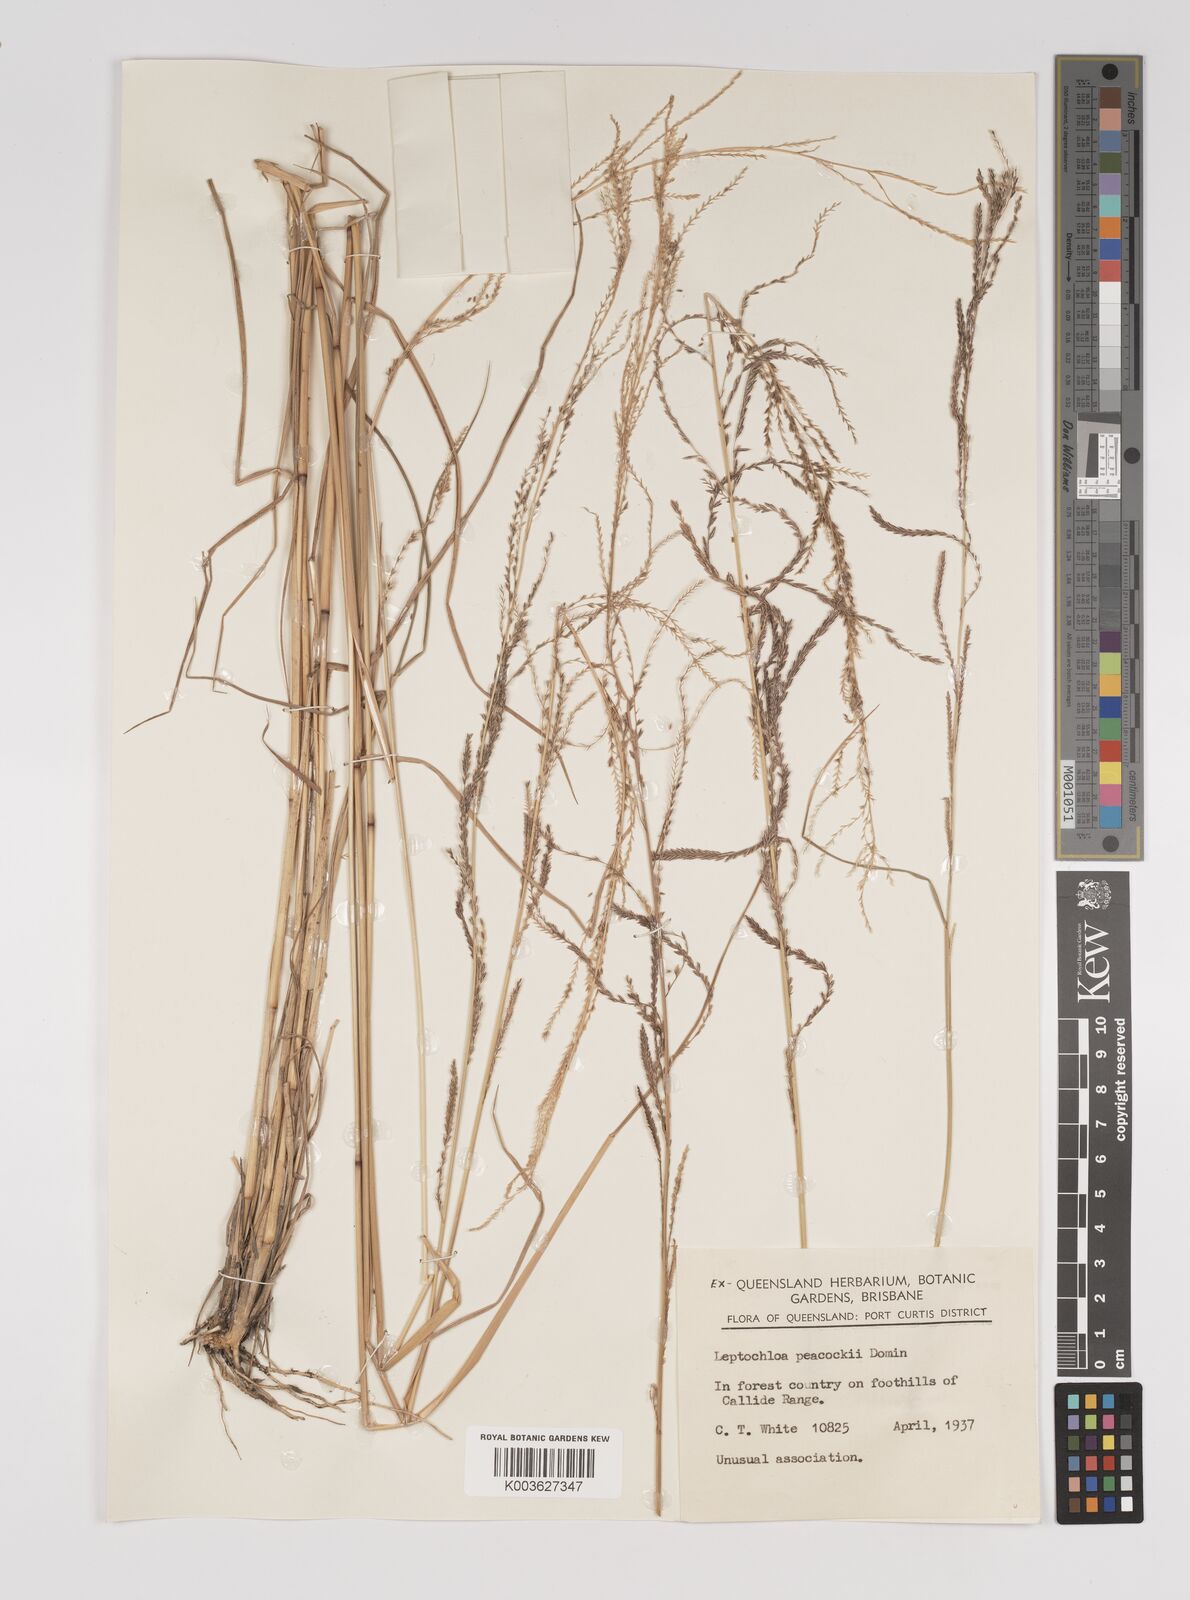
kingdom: Plantae
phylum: Tracheophyta
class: Liliopsida
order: Poales
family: Poaceae
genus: Leptochloa
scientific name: Leptochloa decipiens
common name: Australian sprangletop
